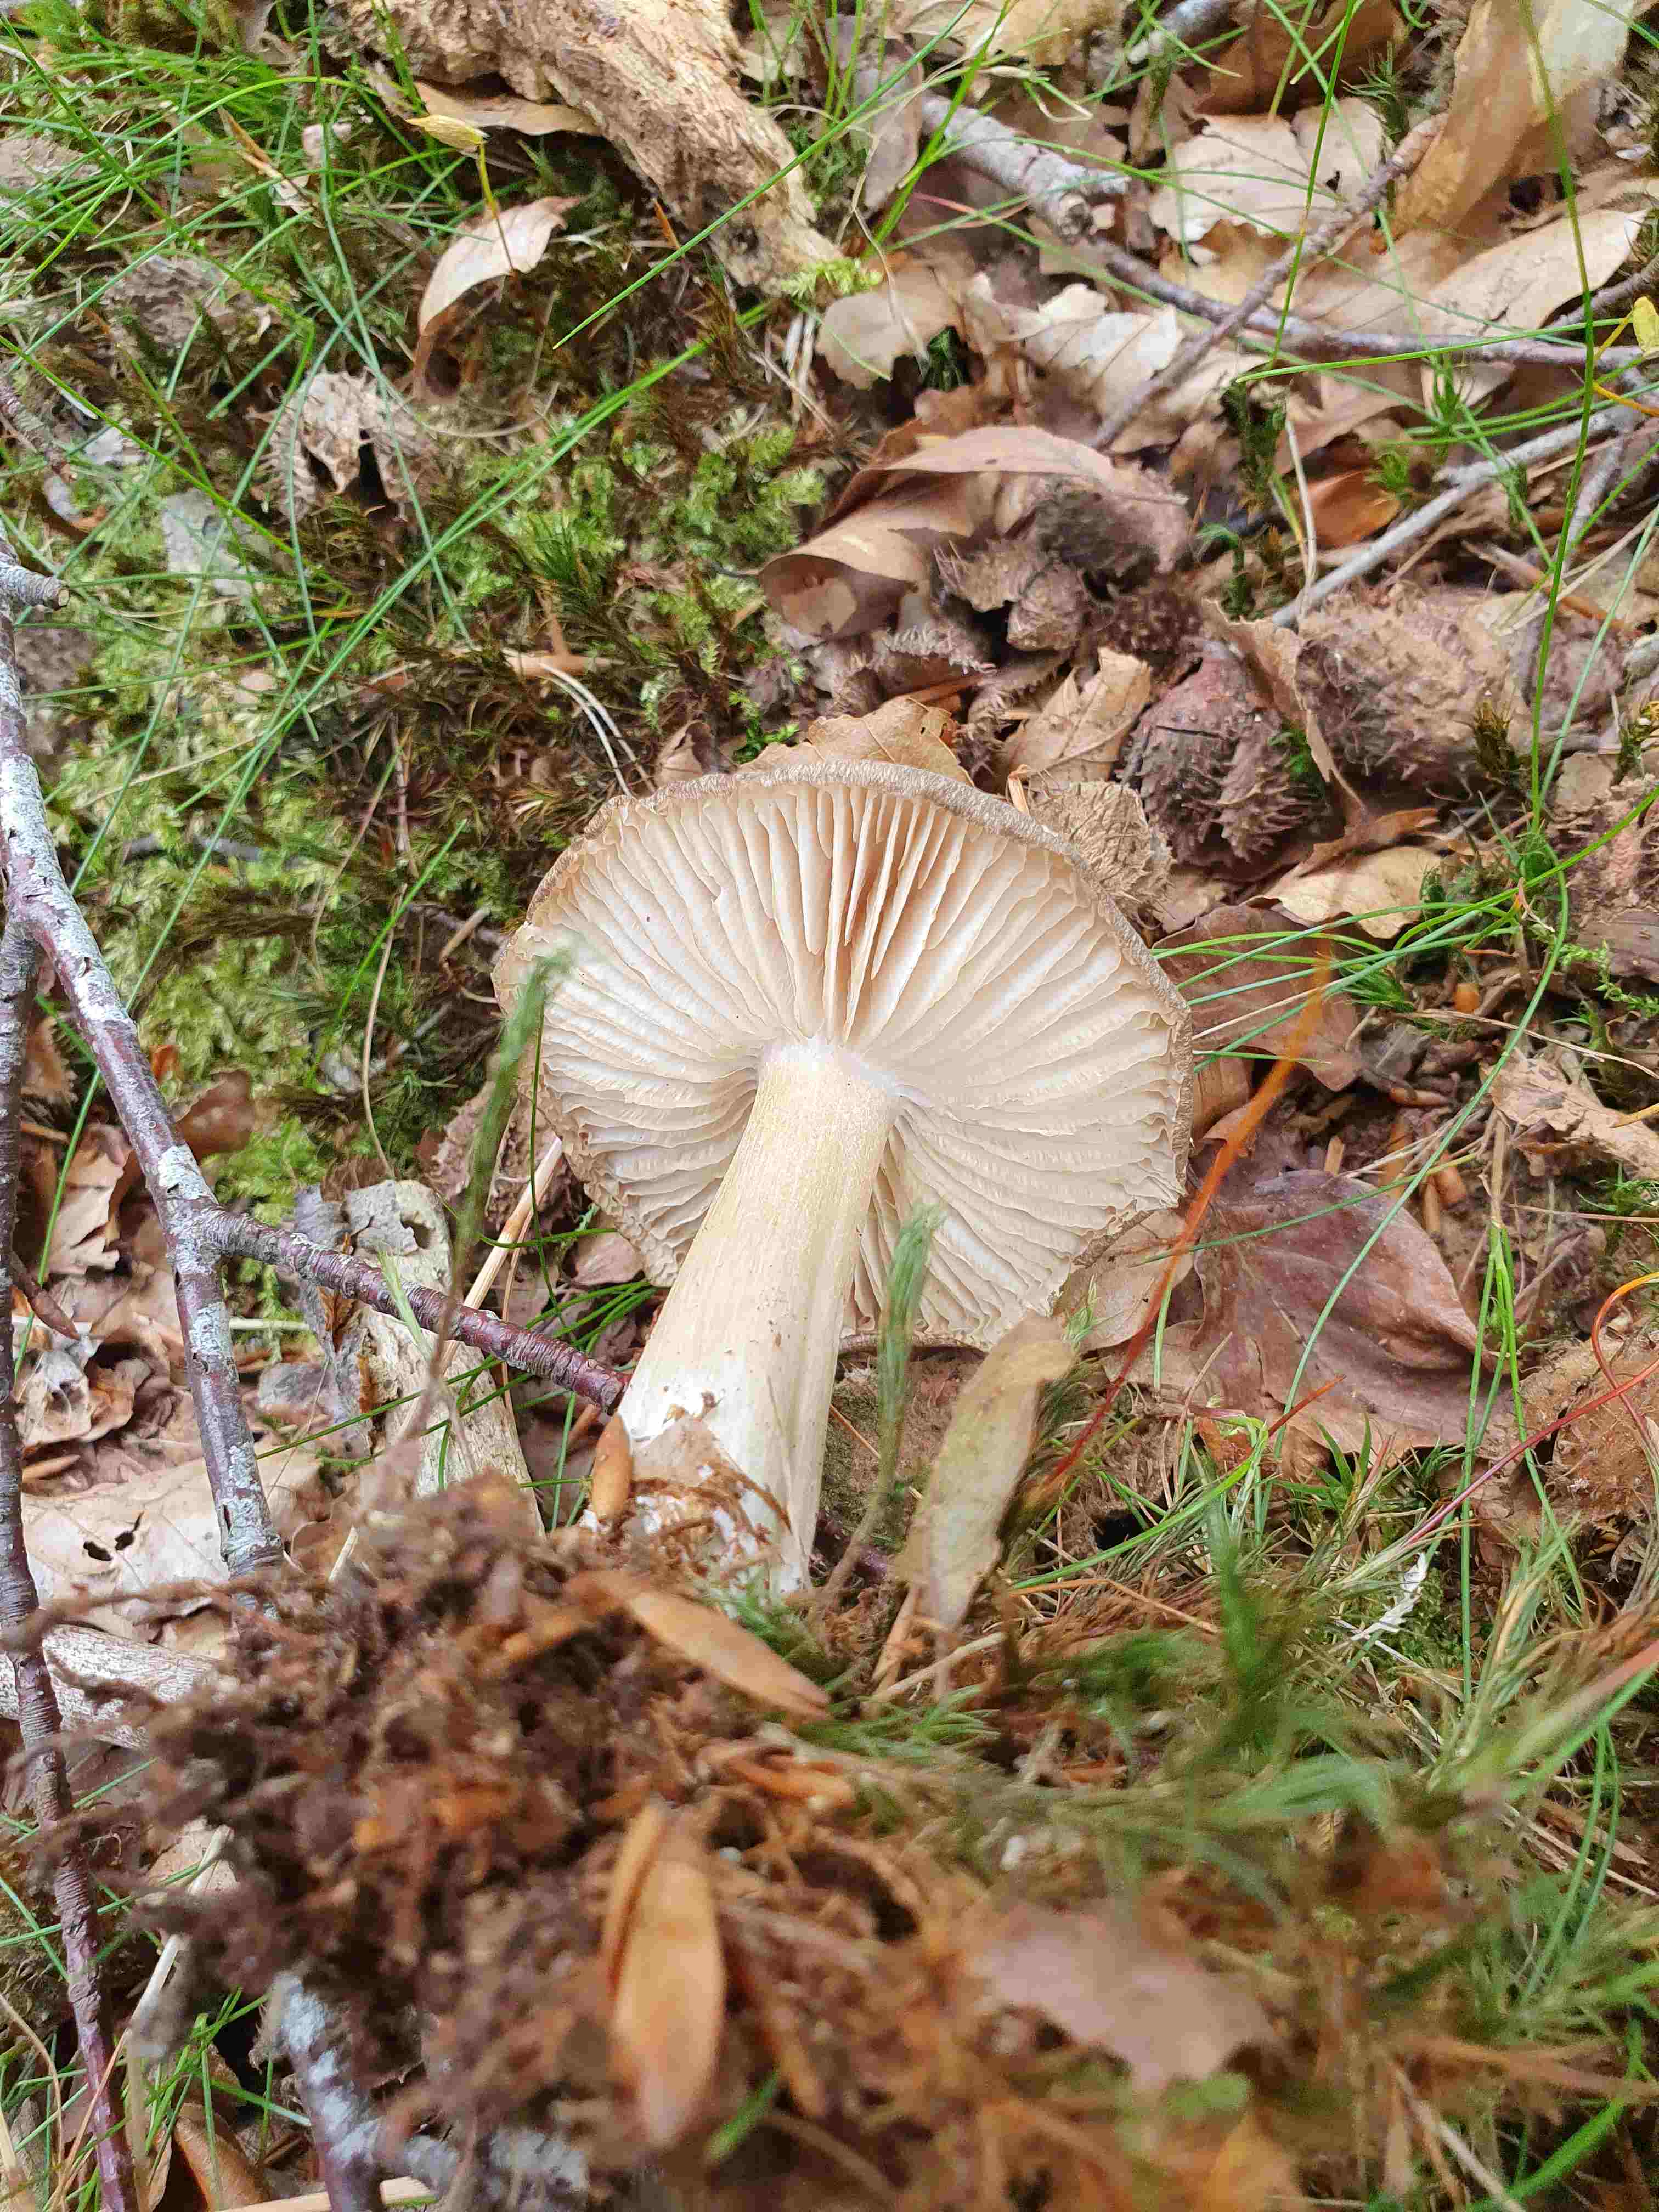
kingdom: Fungi
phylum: Basidiomycota
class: Agaricomycetes
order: Agaricales
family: Tricholomataceae
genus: Megacollybia
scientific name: Megacollybia platyphylla
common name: bredbladet væbnerhat
